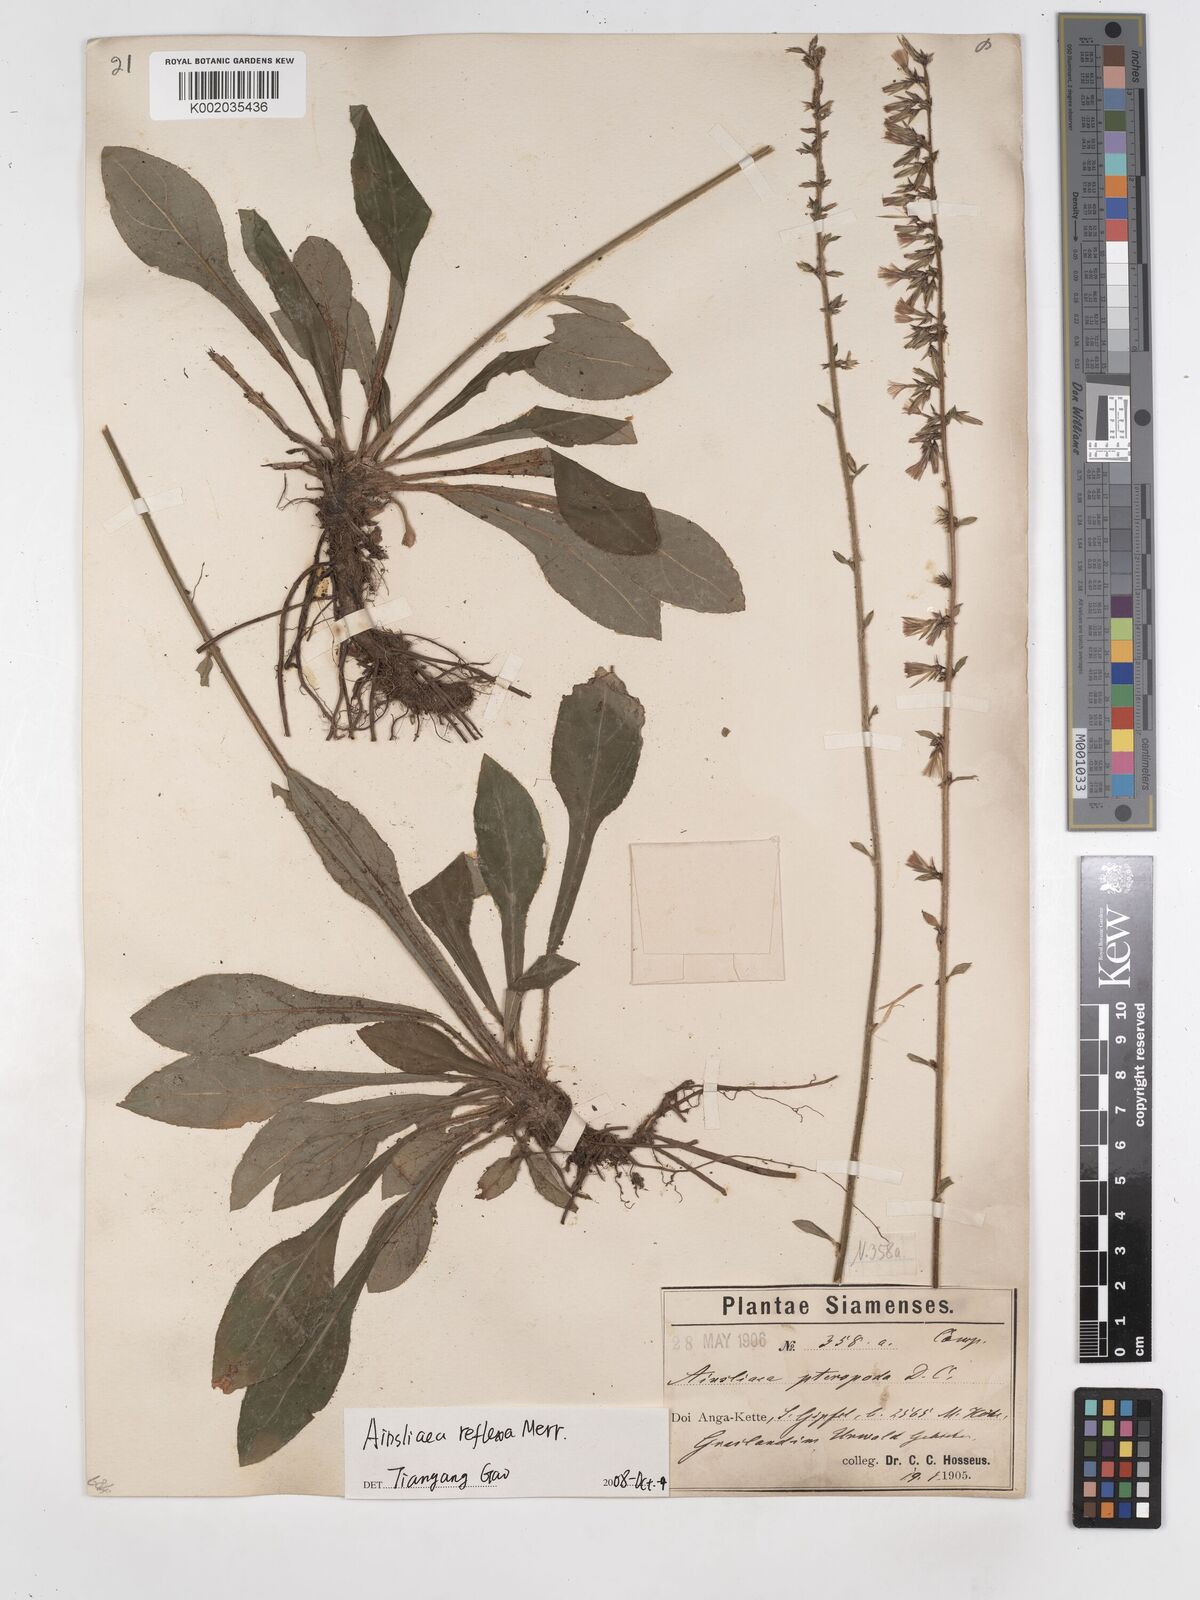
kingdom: Plantae
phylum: Tracheophyta
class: Magnoliopsida
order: Asterales
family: Asteraceae
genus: Ainsliaea
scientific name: Ainsliaea reflexa
